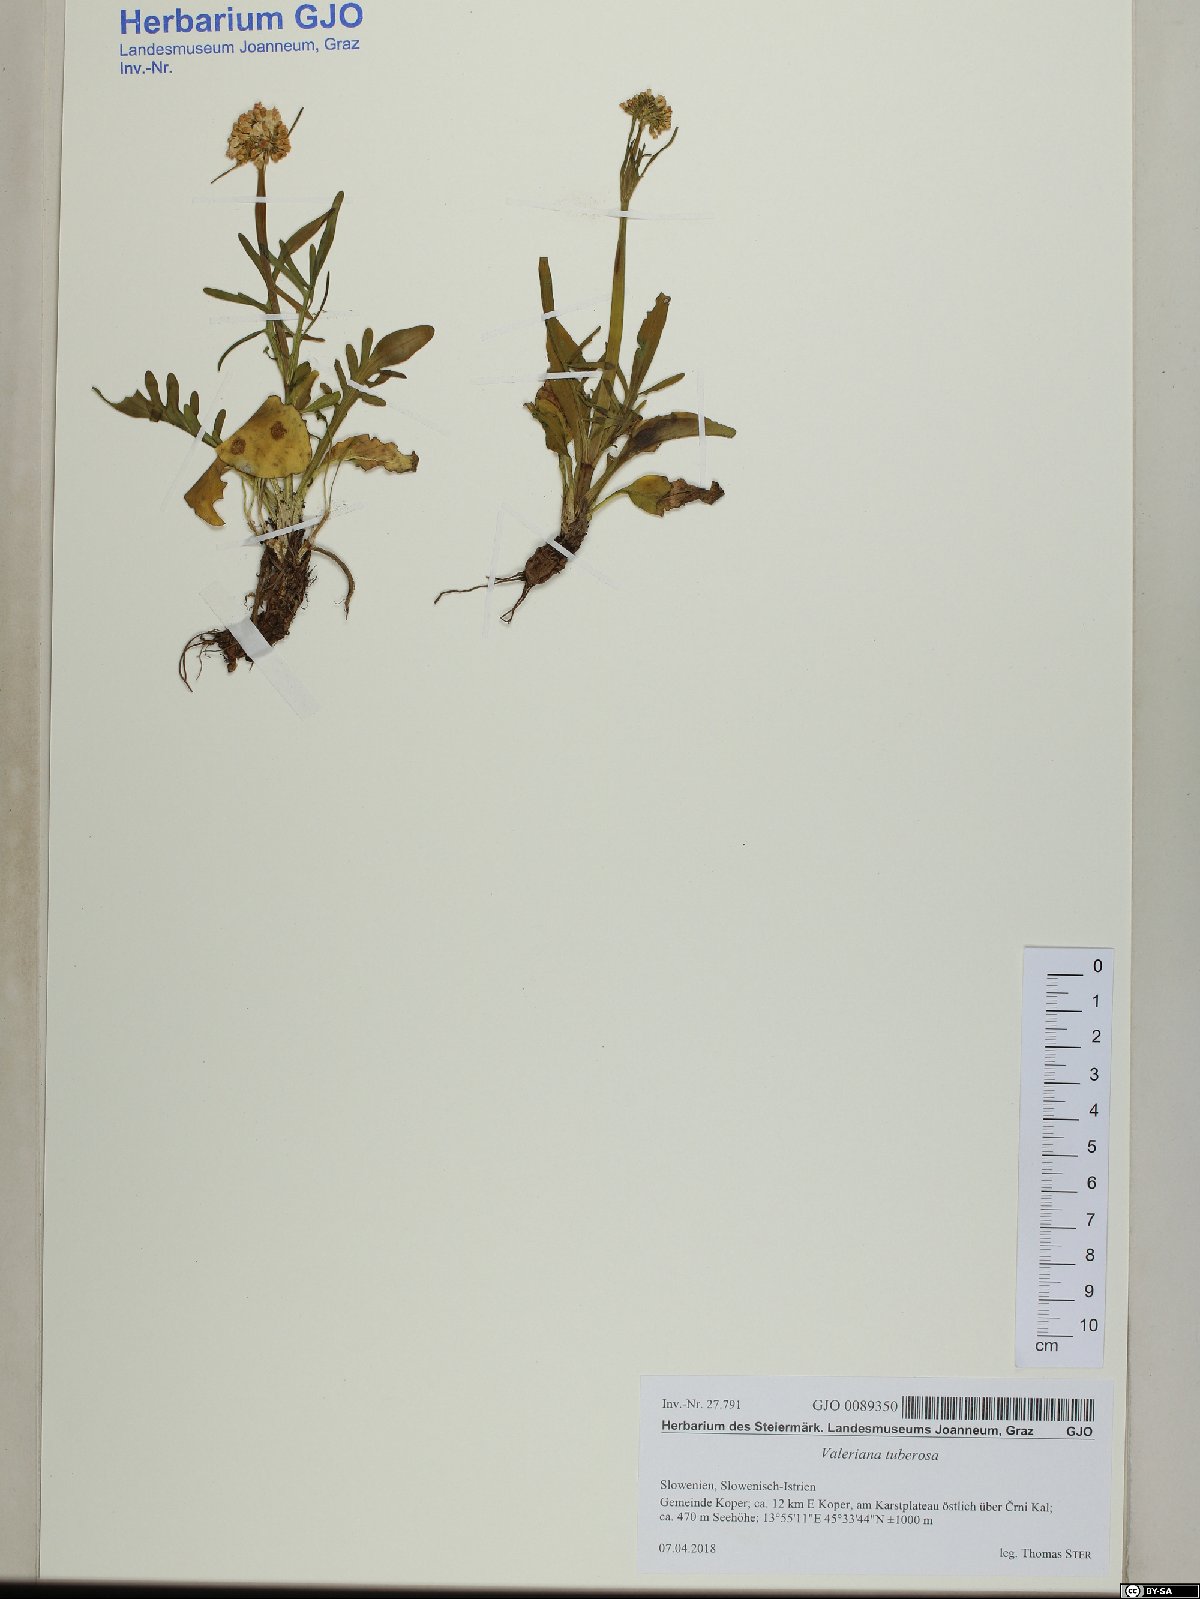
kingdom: Plantae
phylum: Tracheophyta
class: Magnoliopsida
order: Dipsacales
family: Caprifoliaceae
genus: Valeriana
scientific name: Valeriana tuberosa
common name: Tuberous valerian
